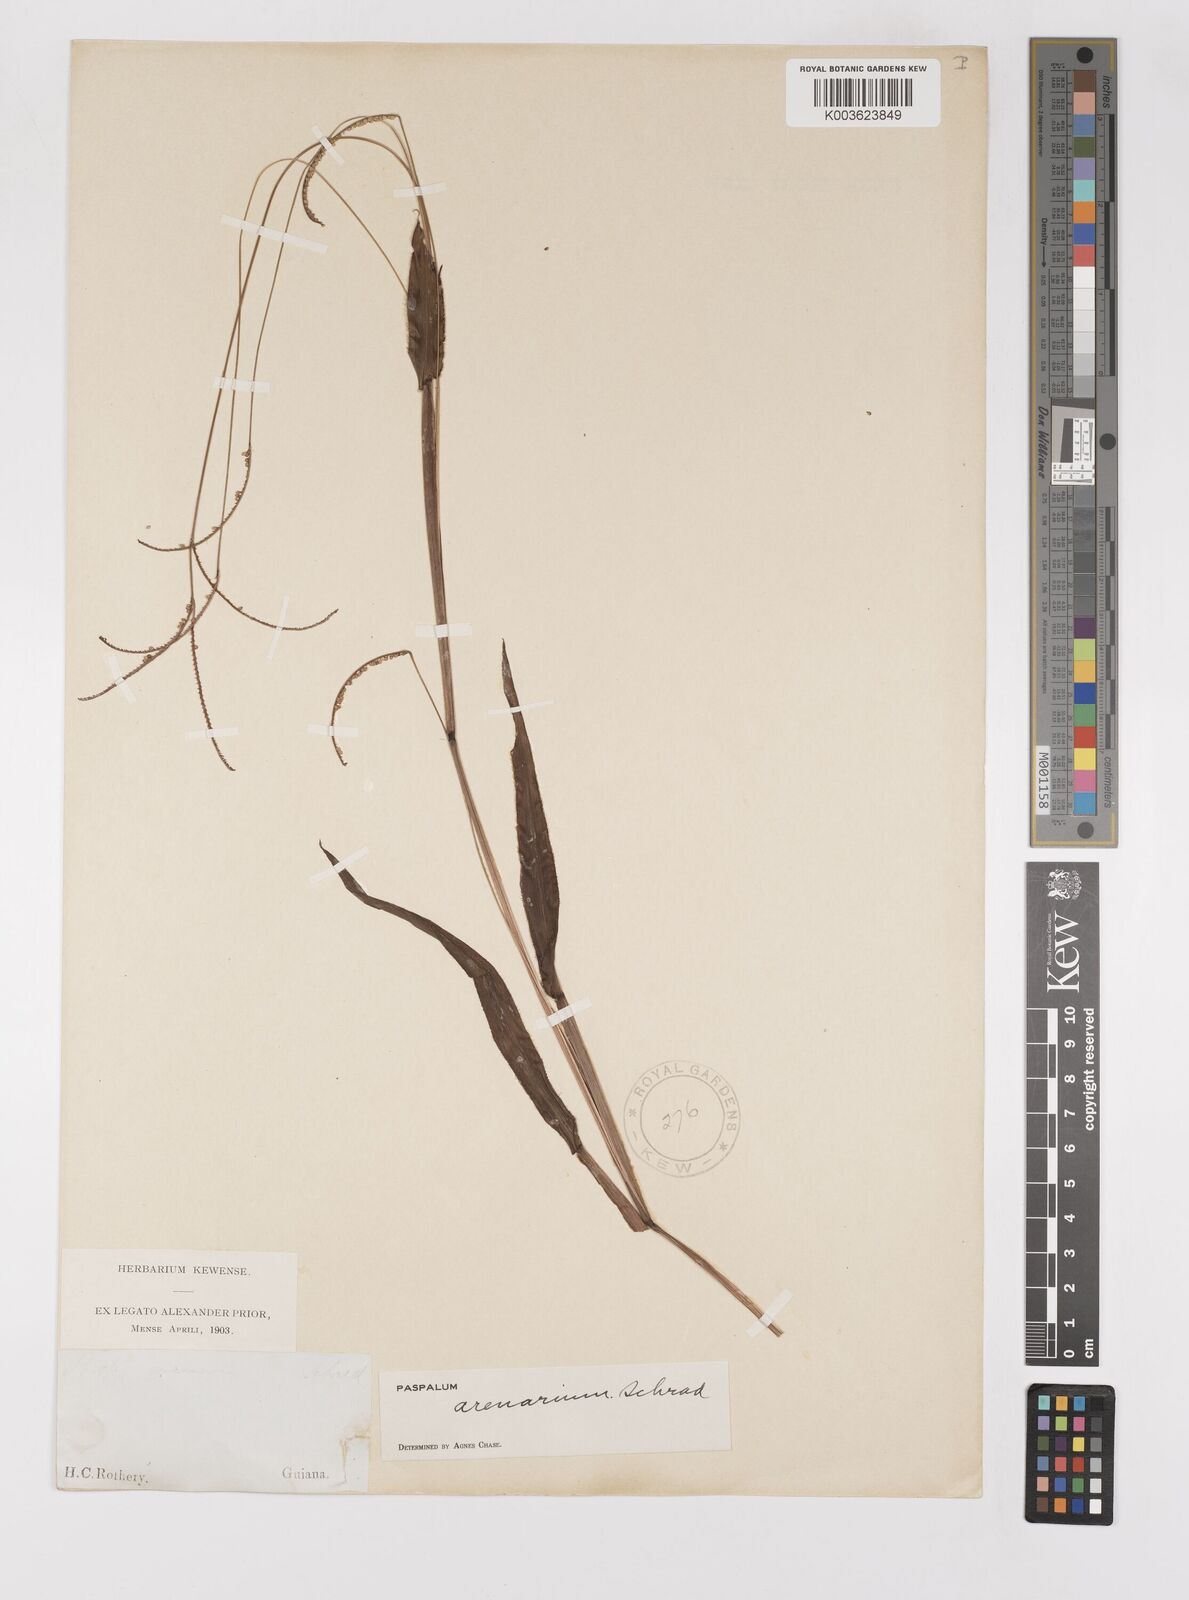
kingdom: Plantae
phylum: Tracheophyta
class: Liliopsida
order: Poales
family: Poaceae
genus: Paspalum
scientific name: Paspalum arenarium
